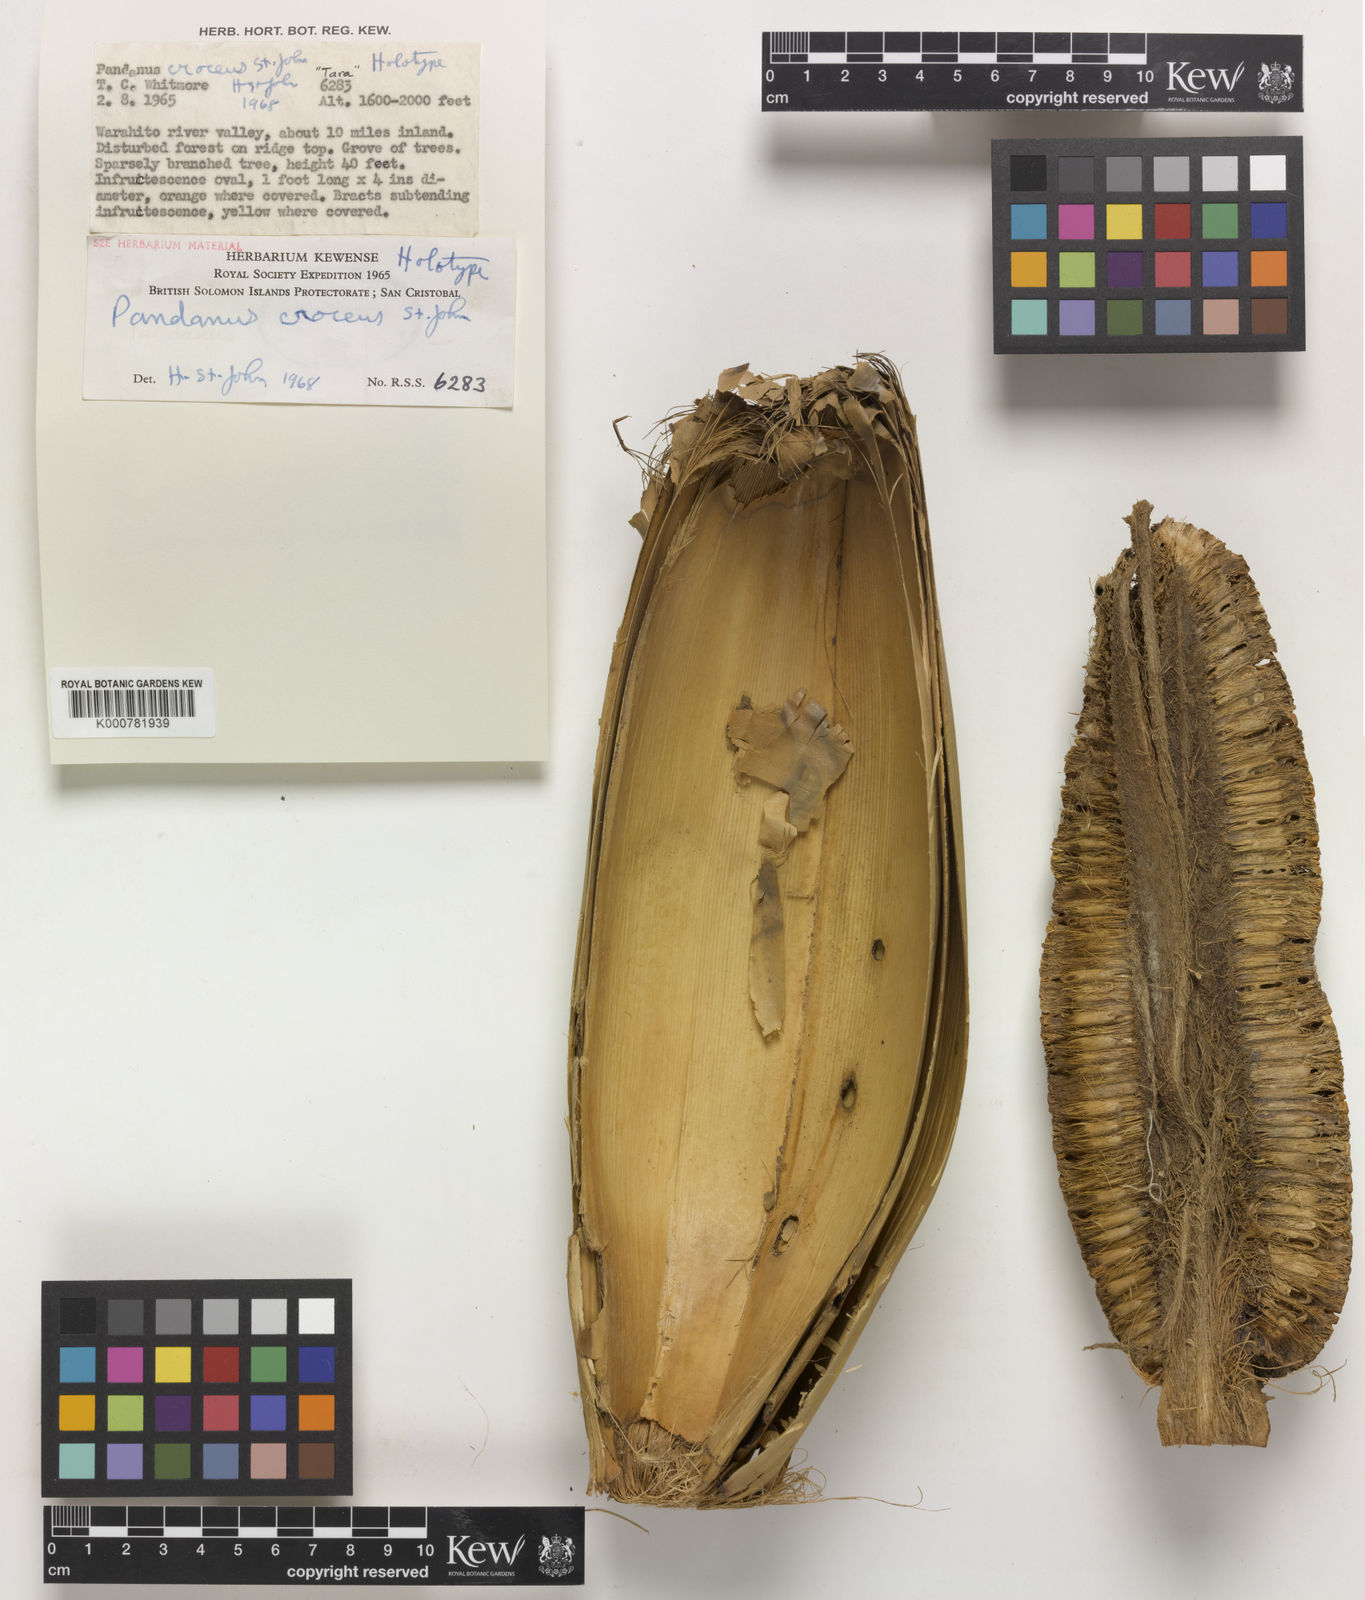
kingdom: Plantae
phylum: Tracheophyta
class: Liliopsida
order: Pandanales
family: Pandanaceae
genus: Pandanus
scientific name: Pandanus
